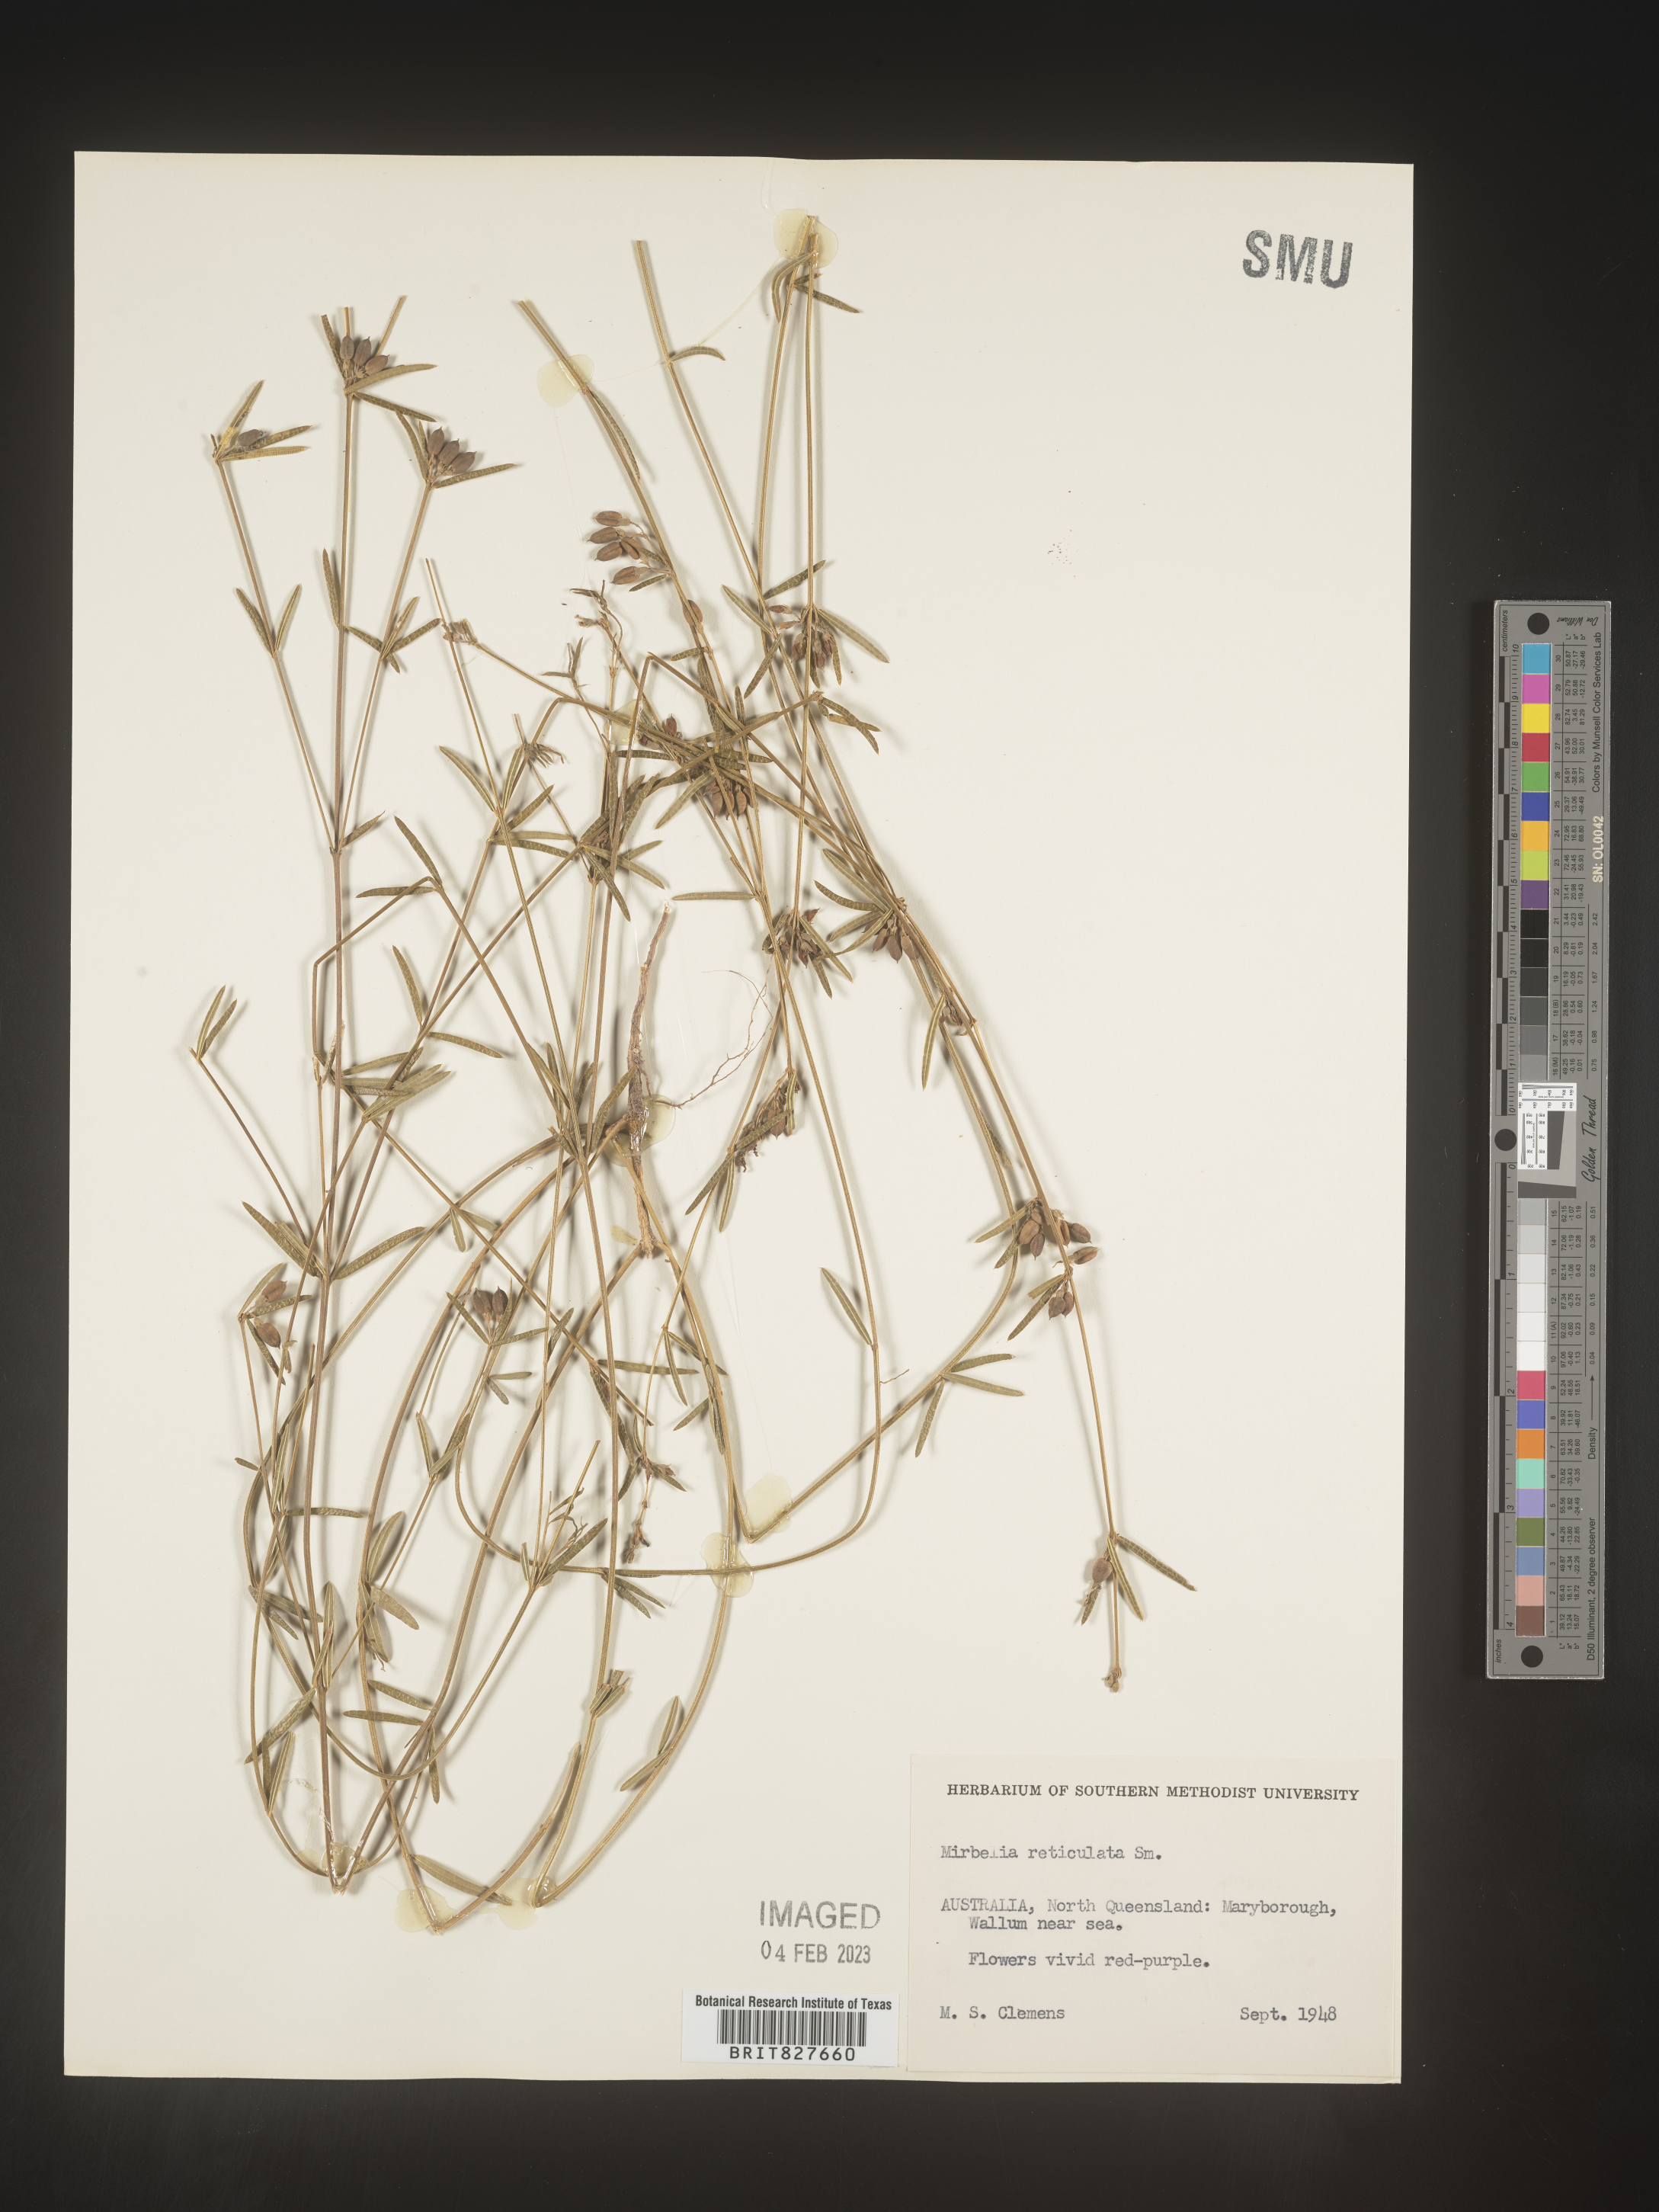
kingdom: Plantae
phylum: Tracheophyta
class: Magnoliopsida
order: Fabales
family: Fabaceae
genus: Mirbelia
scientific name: Mirbelia
